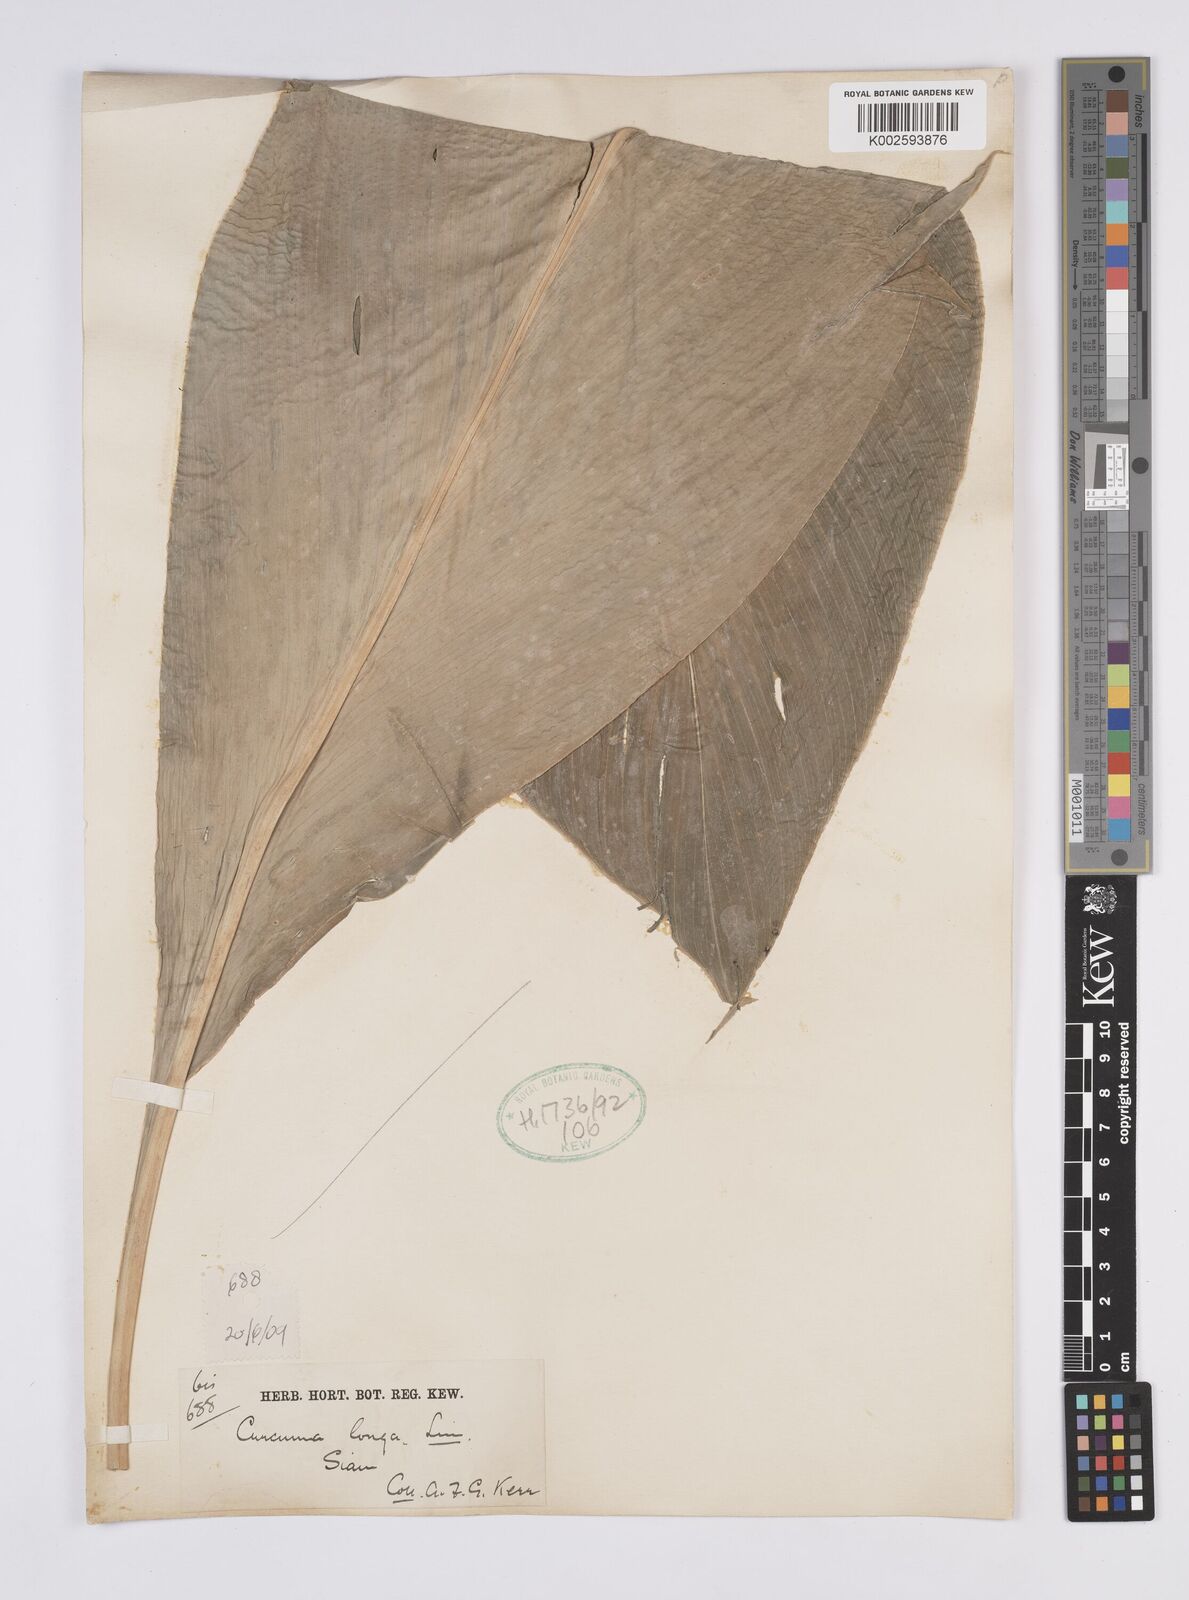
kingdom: Plantae
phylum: Tracheophyta
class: Liliopsida
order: Zingiberales
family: Zingiberaceae
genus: Curcuma
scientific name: Curcuma longa
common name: Turmeric
